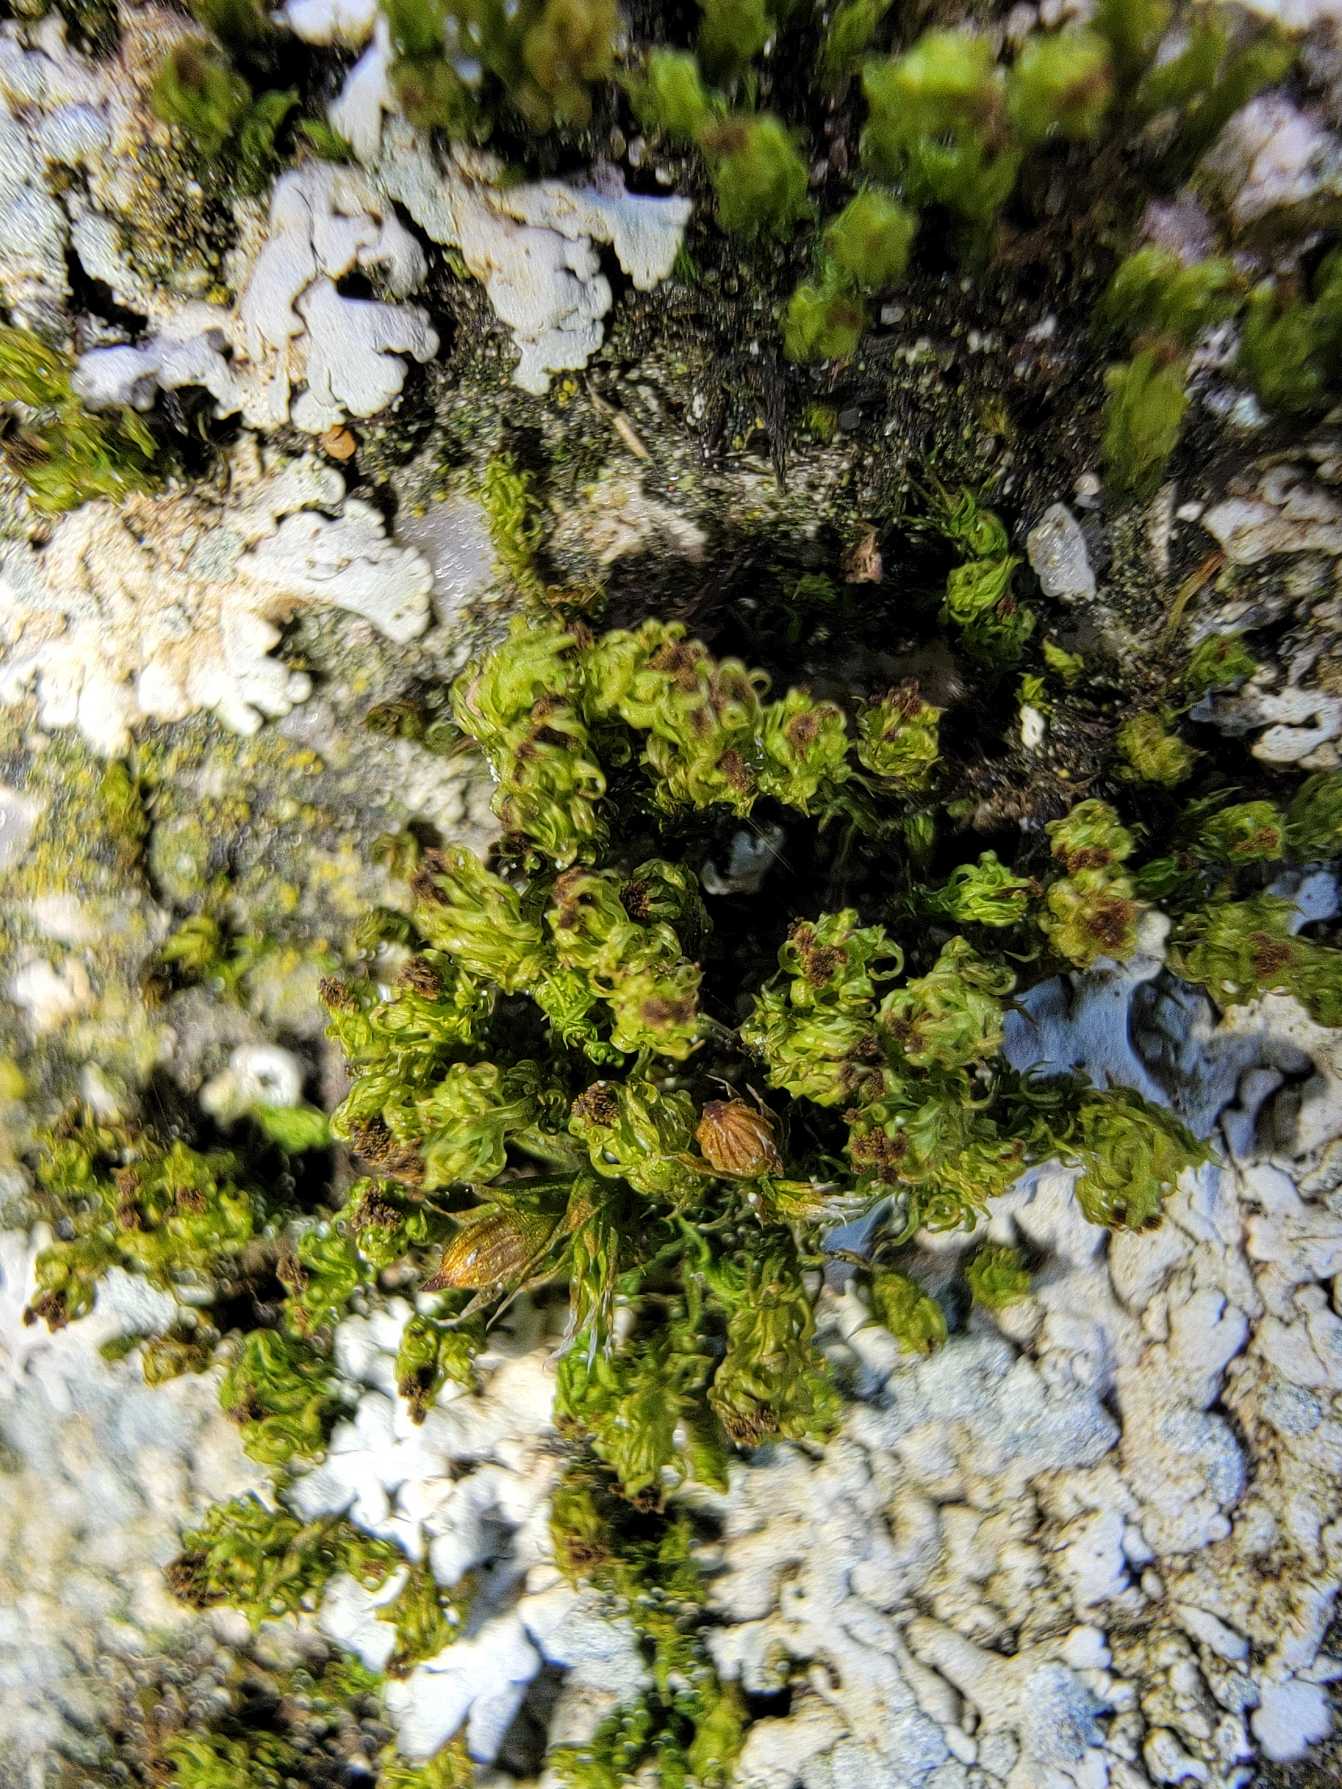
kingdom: Plantae
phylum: Bryophyta
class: Bryopsida
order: Orthotrichales
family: Orthotrichaceae
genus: Plenogemma
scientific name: Plenogemma phyllantha
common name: Stor låddenhætte
